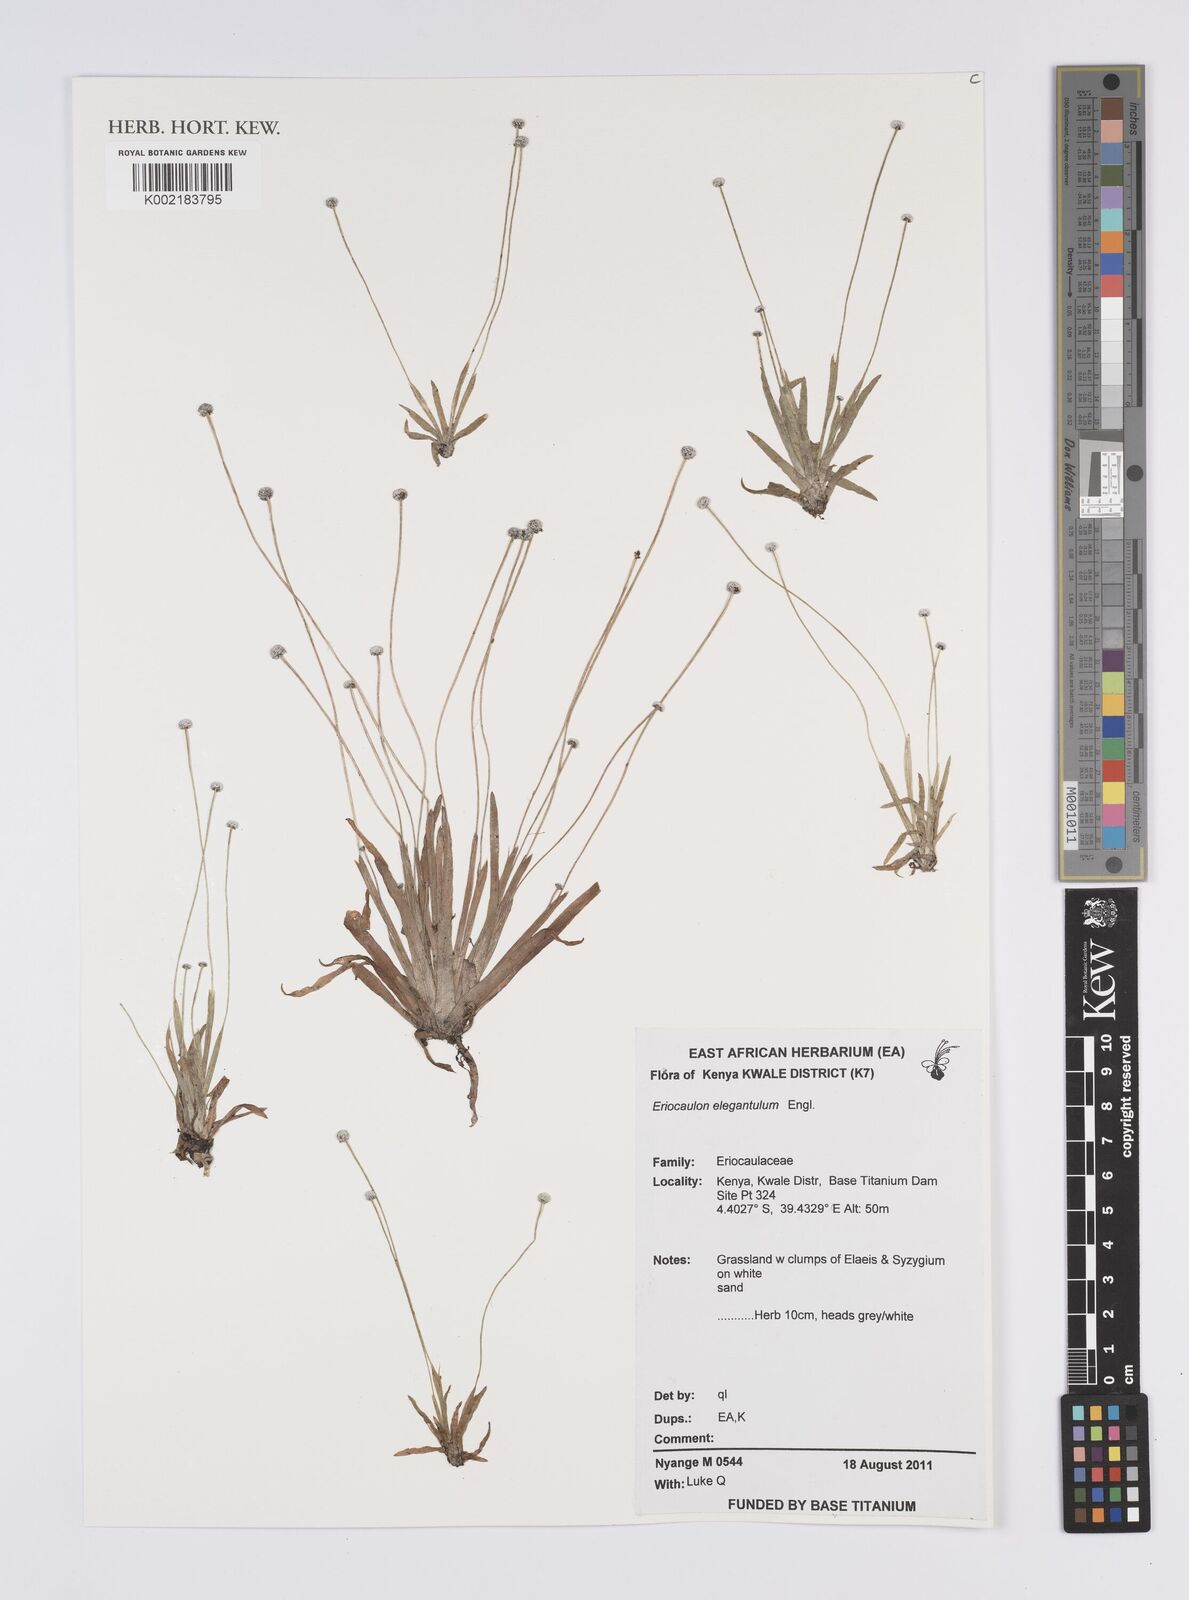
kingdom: Plantae
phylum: Tracheophyta
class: Liliopsida
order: Poales
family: Eriocaulaceae
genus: Eriocaulon
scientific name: Eriocaulon elegantulum
